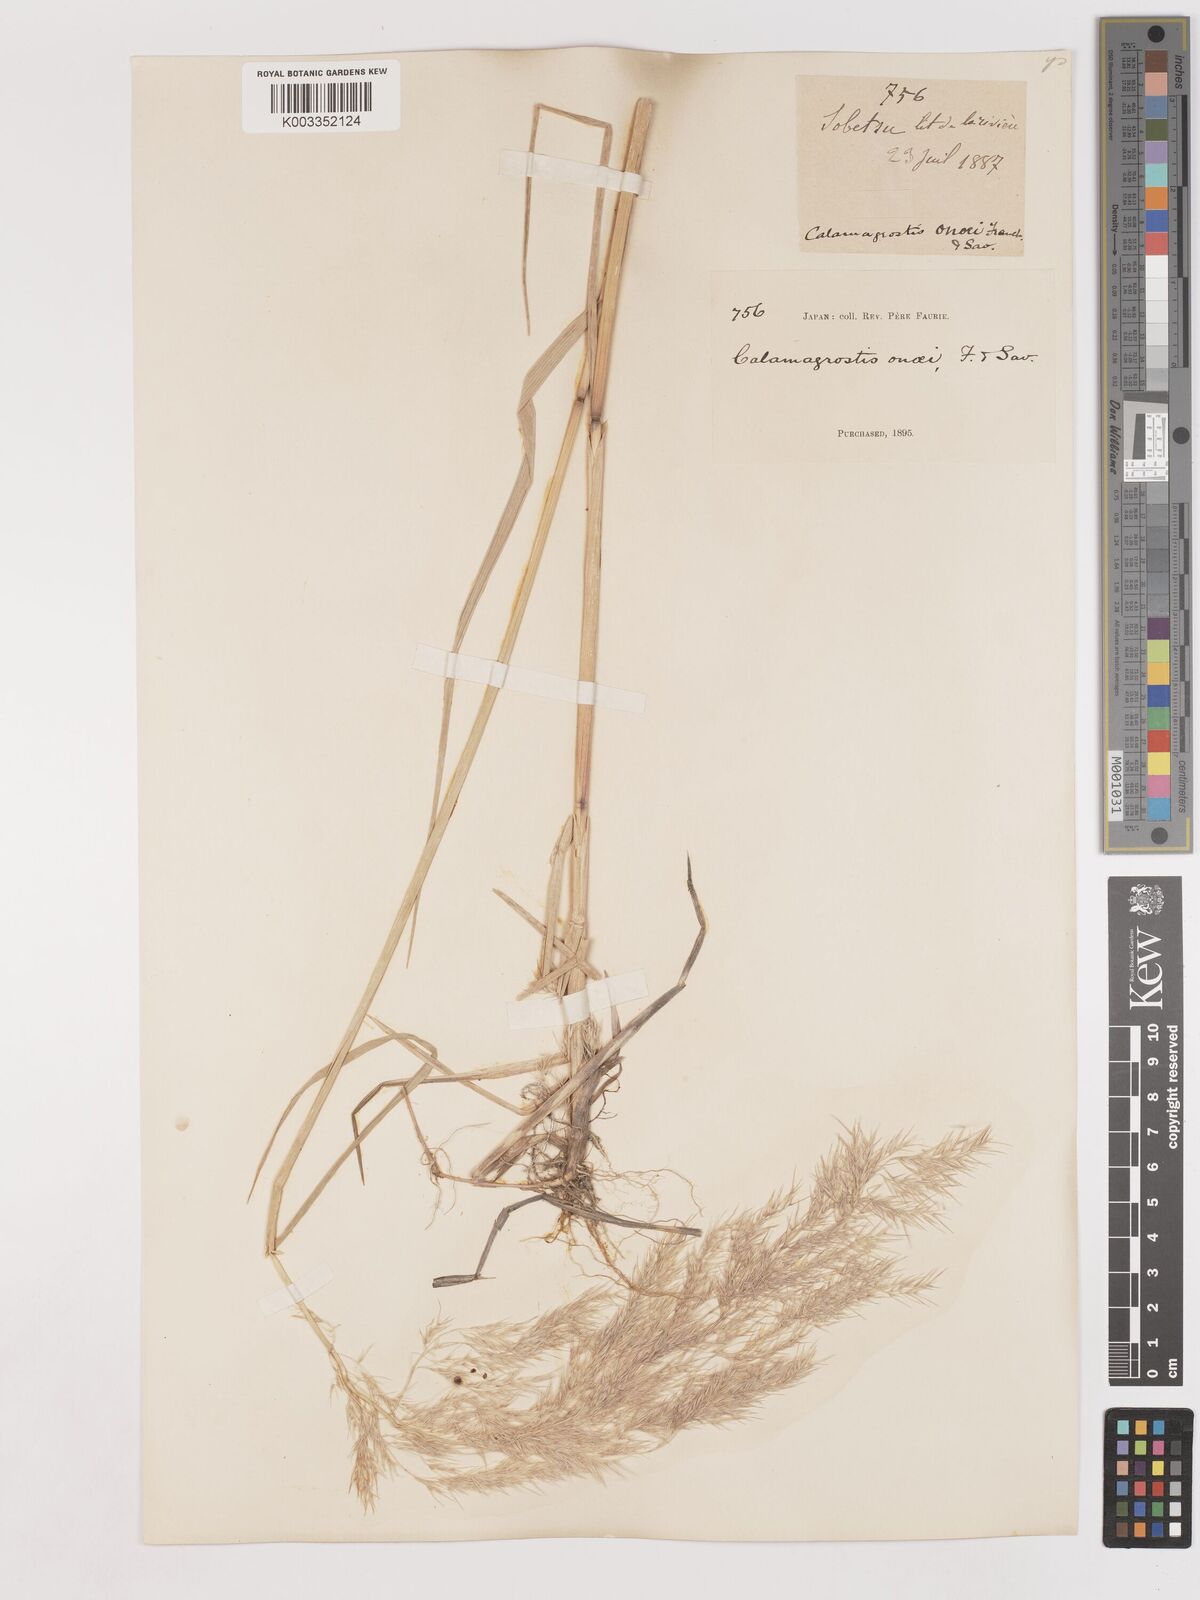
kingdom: Plantae
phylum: Tracheophyta
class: Liliopsida
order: Poales
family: Poaceae
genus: Calamagrostis
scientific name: Calamagrostis pseudophragmites
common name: Coastal small-reed
